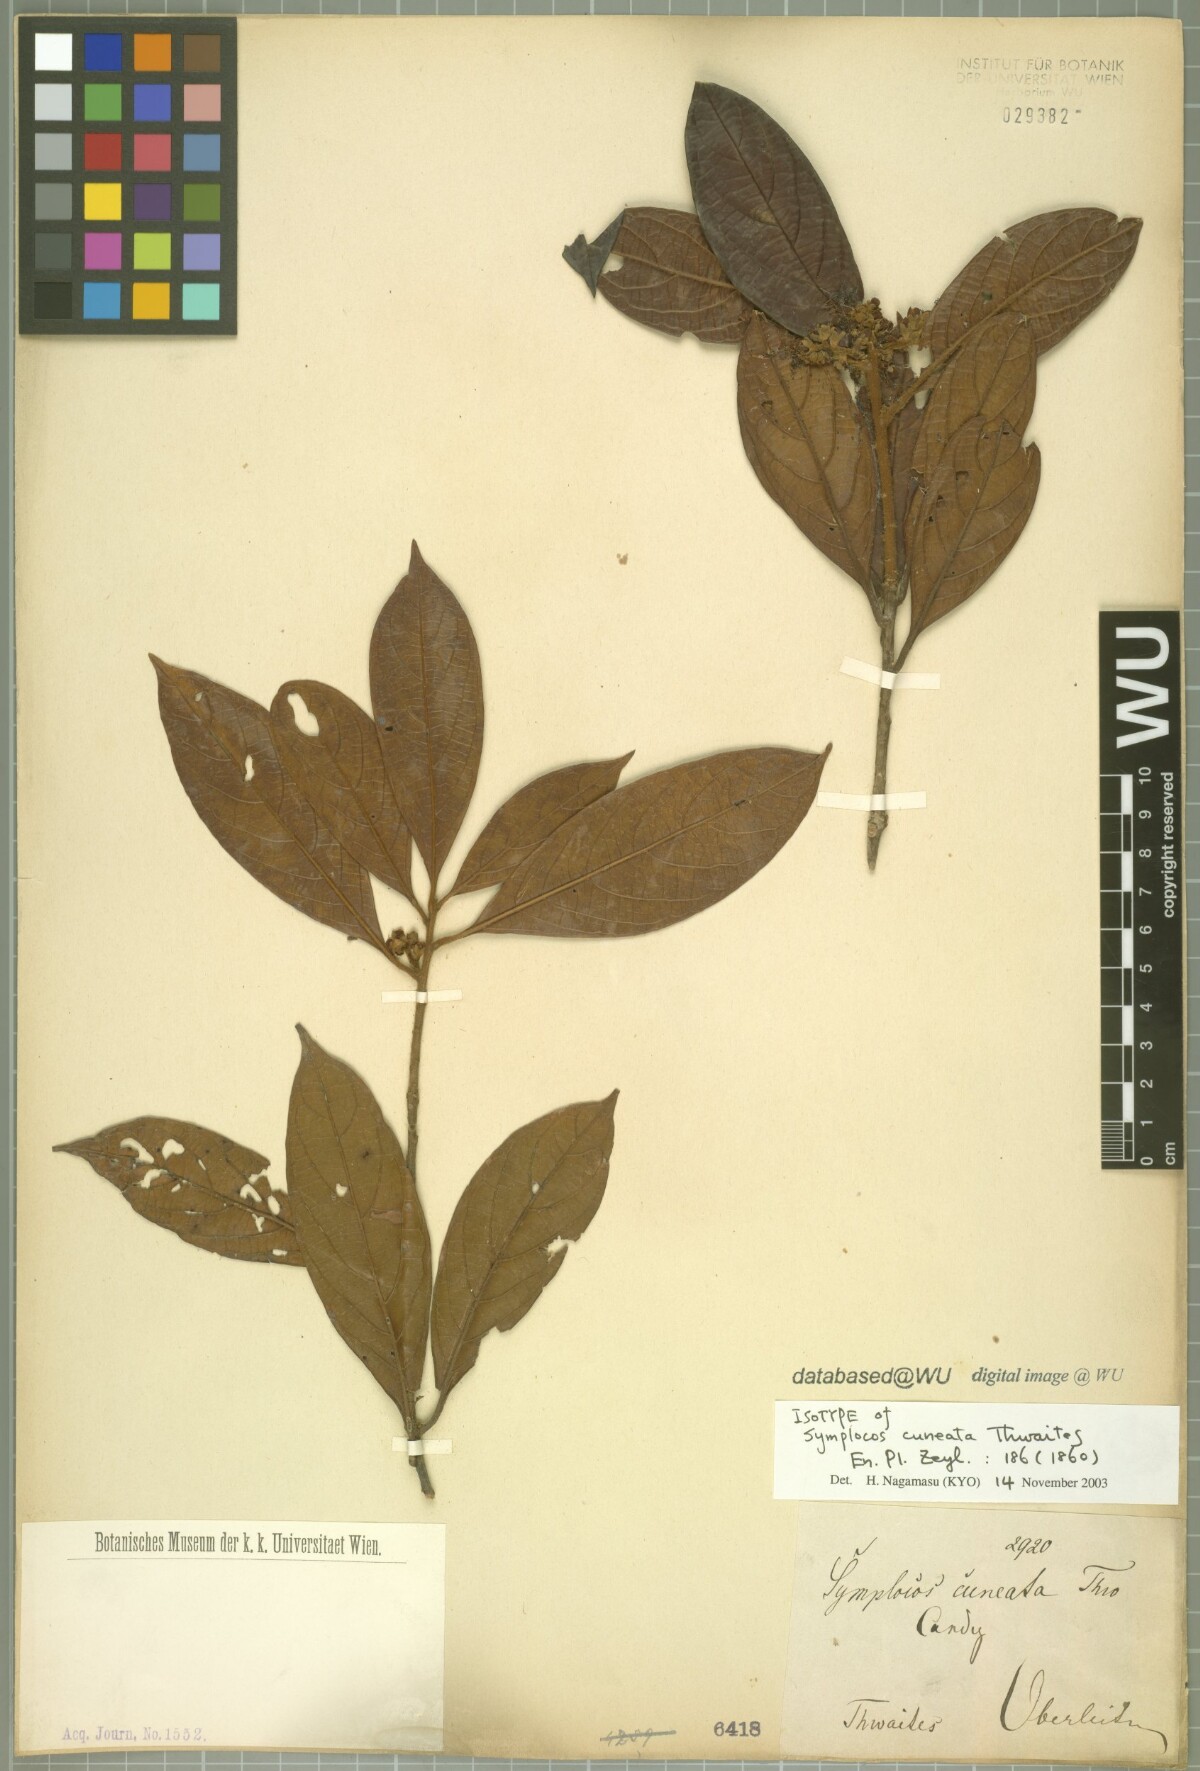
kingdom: Plantae
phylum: Tracheophyta
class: Magnoliopsida
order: Ericales
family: Symplocaceae
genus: Symplocos
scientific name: Symplocos cuneata
